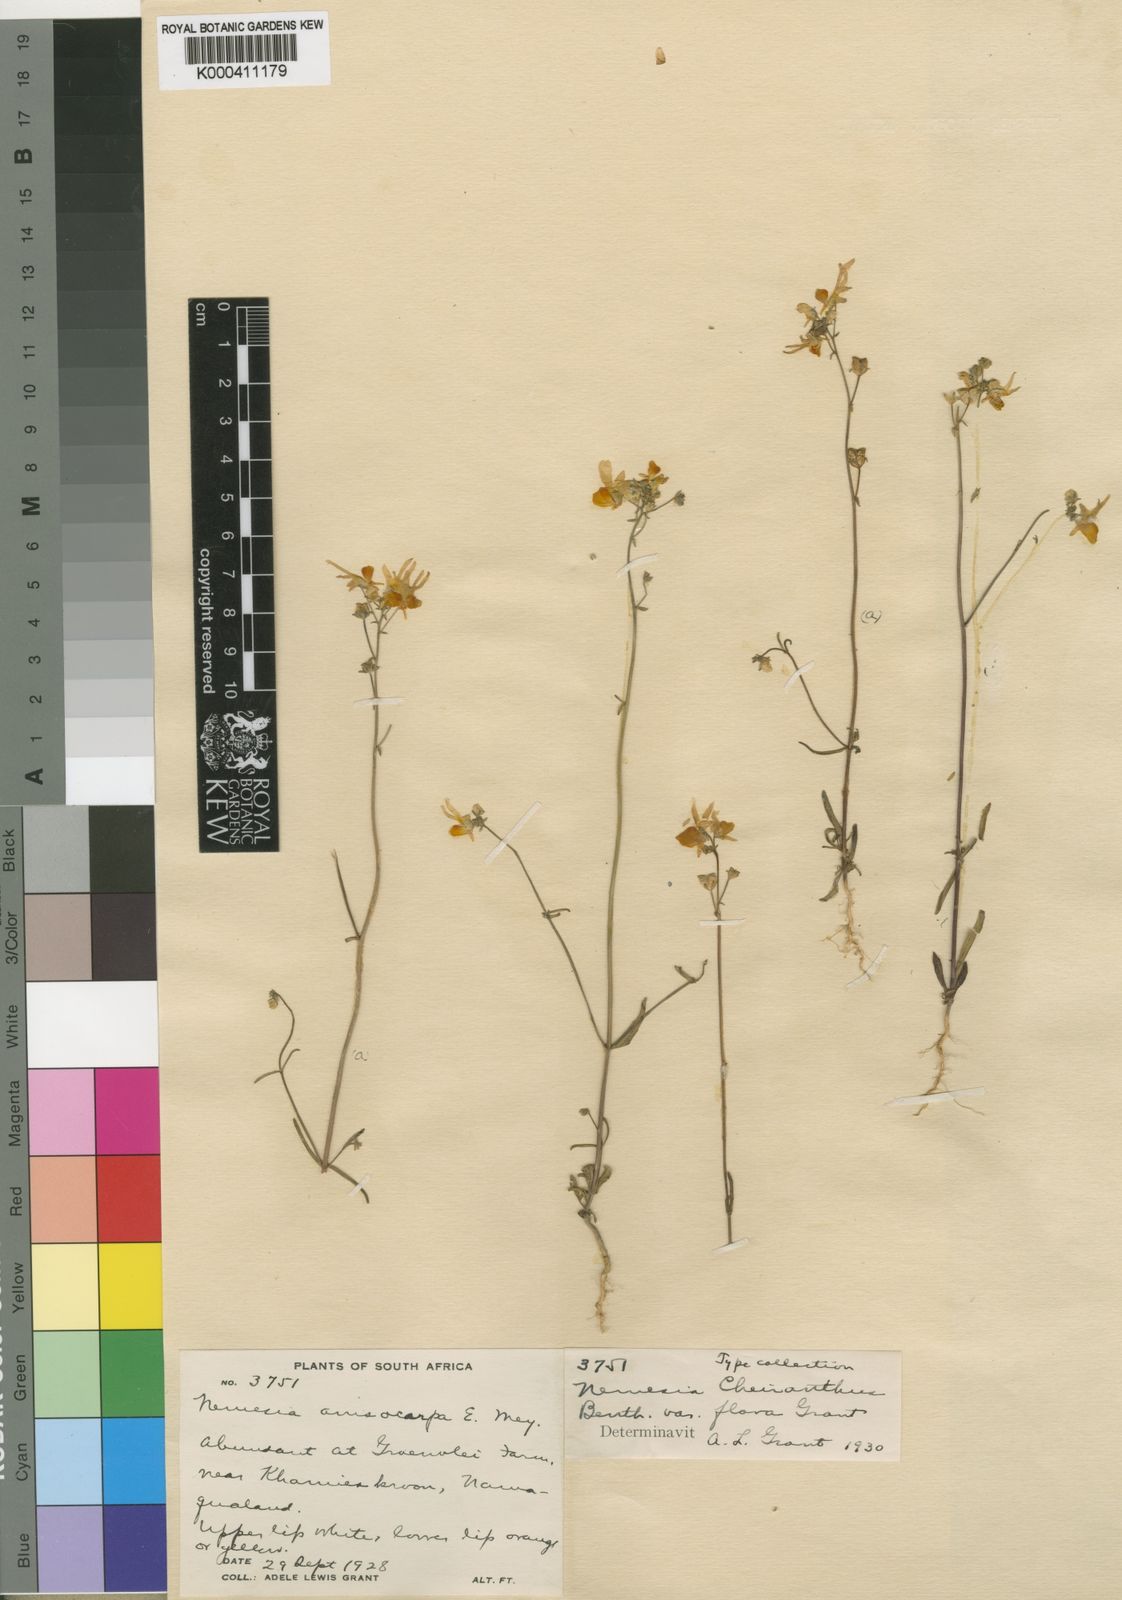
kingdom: Plantae
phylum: Tracheophyta
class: Magnoliopsida
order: Lamiales
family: Scrophulariaceae
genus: Nemesia
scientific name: Nemesia cheiranthus
